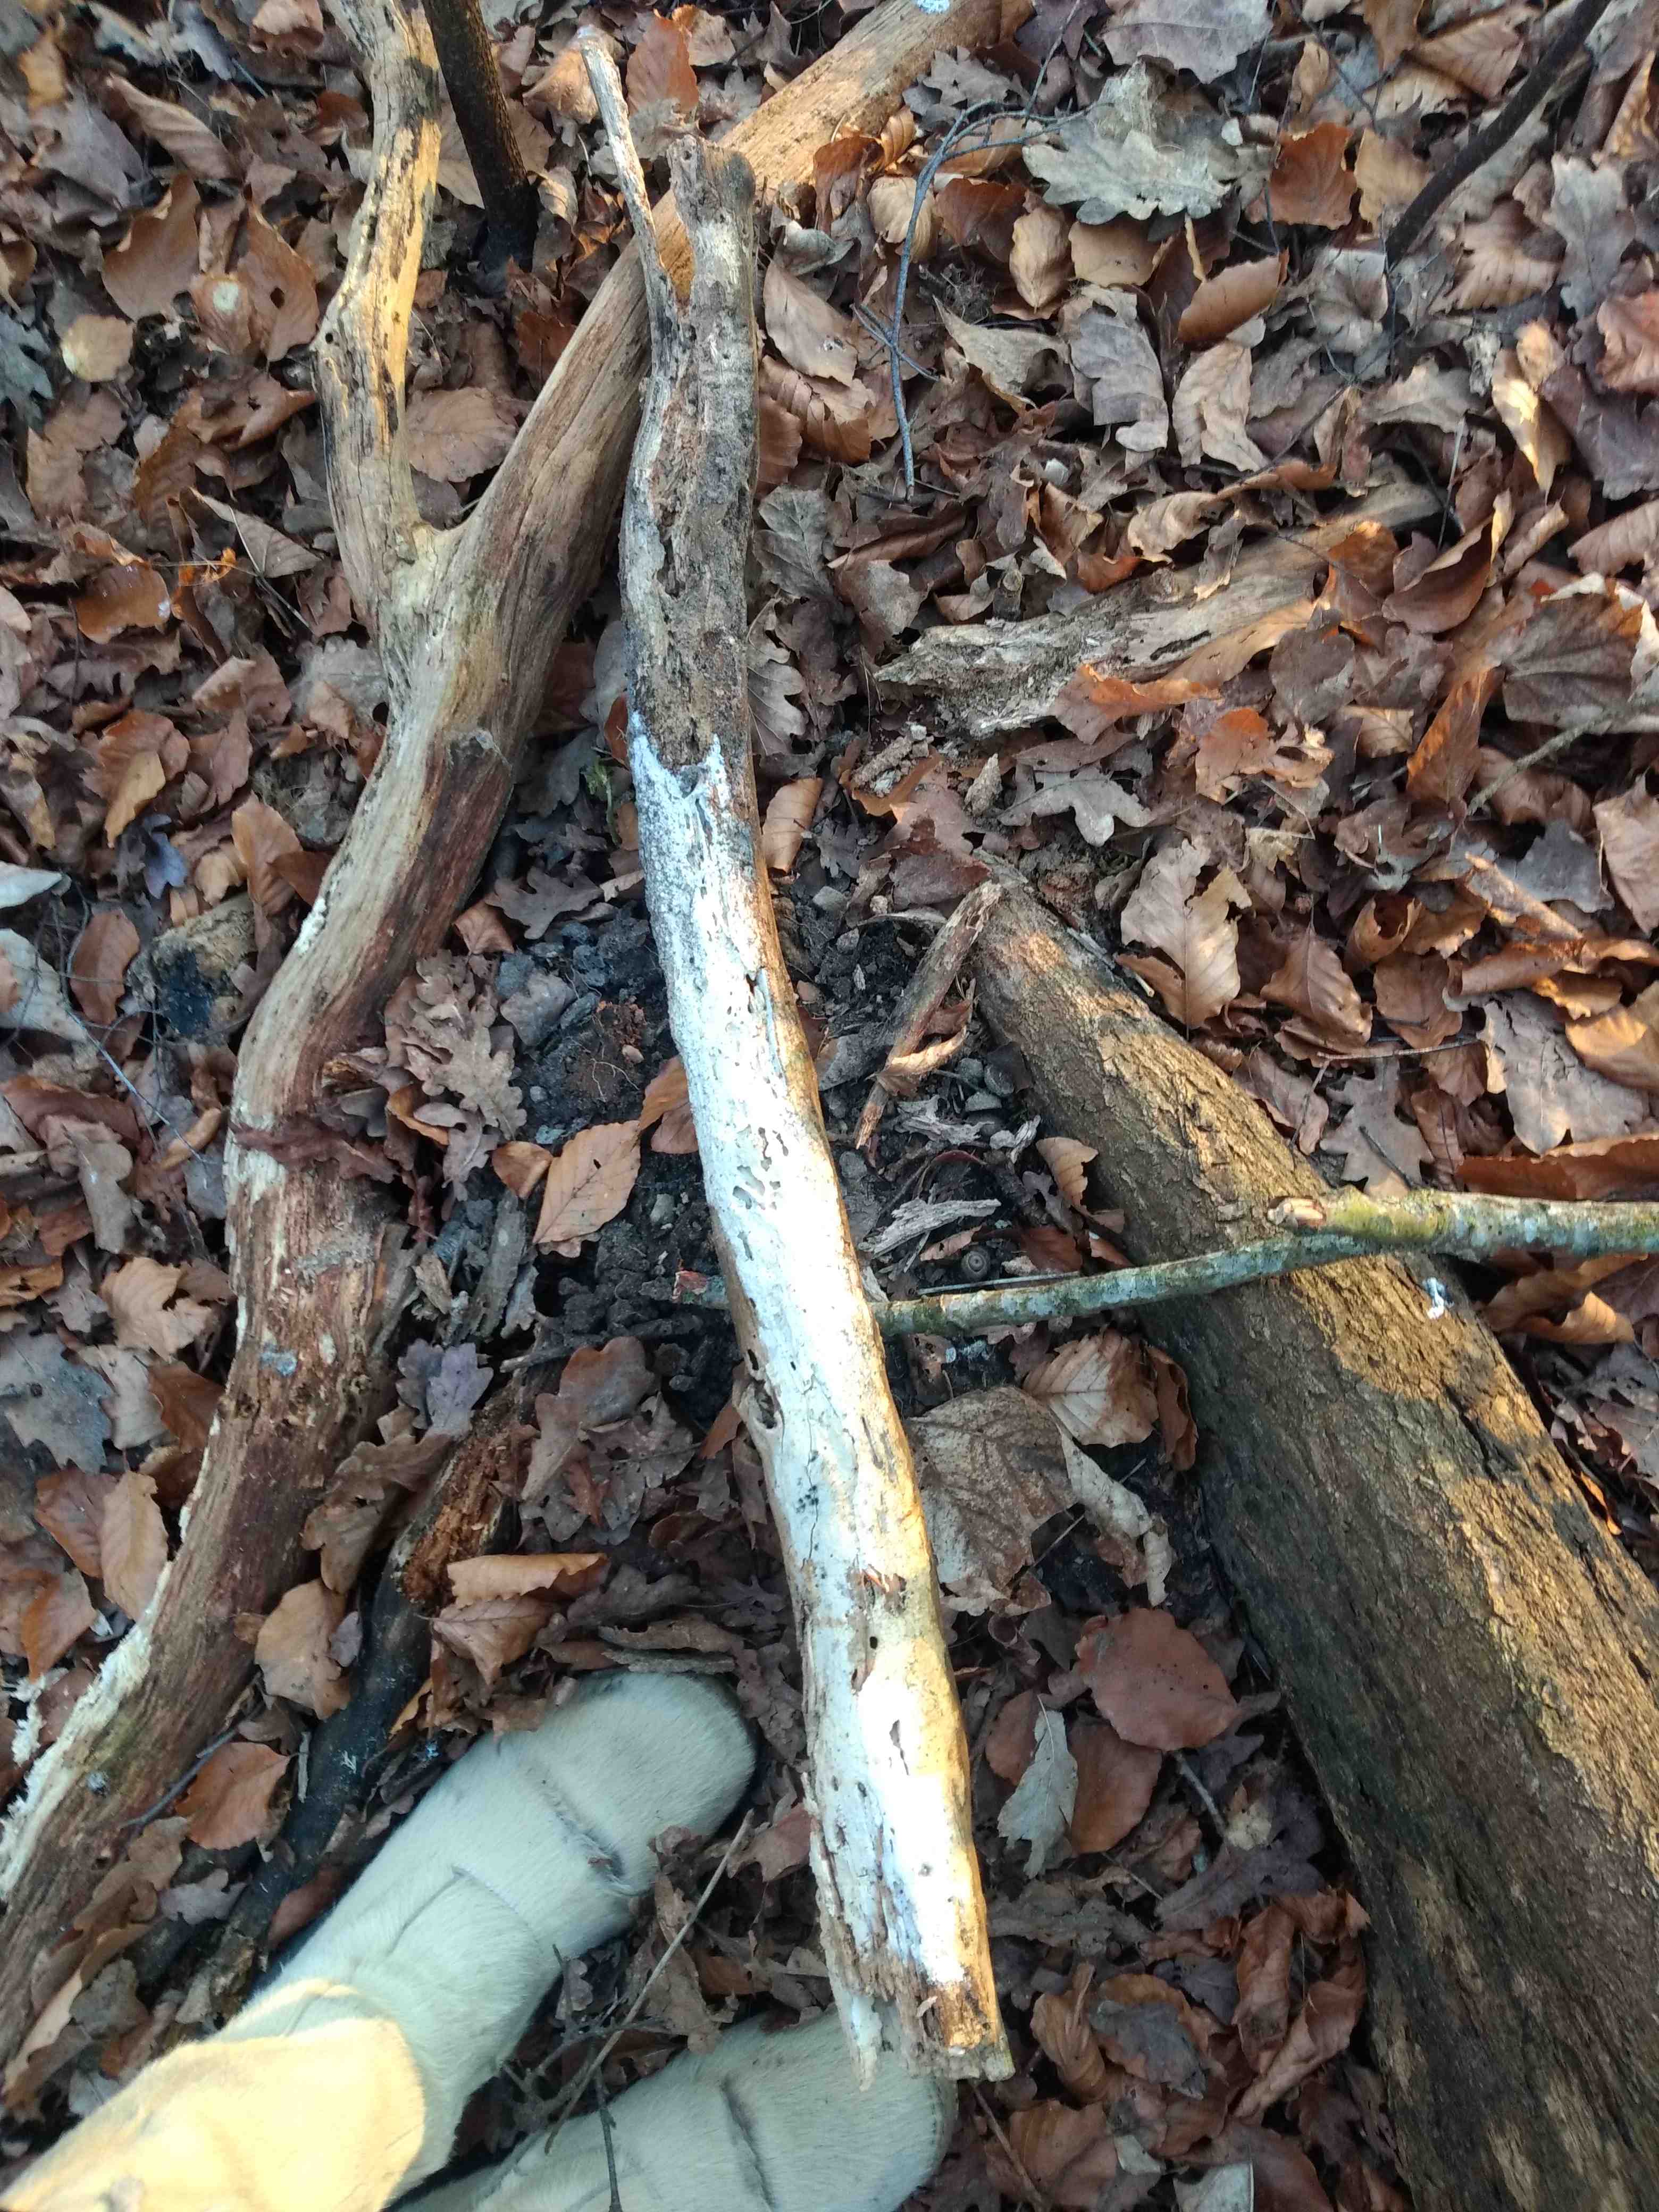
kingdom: Fungi
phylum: Basidiomycota
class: Agaricomycetes
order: Corticiales
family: Corticiaceae
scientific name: Corticiaceae
